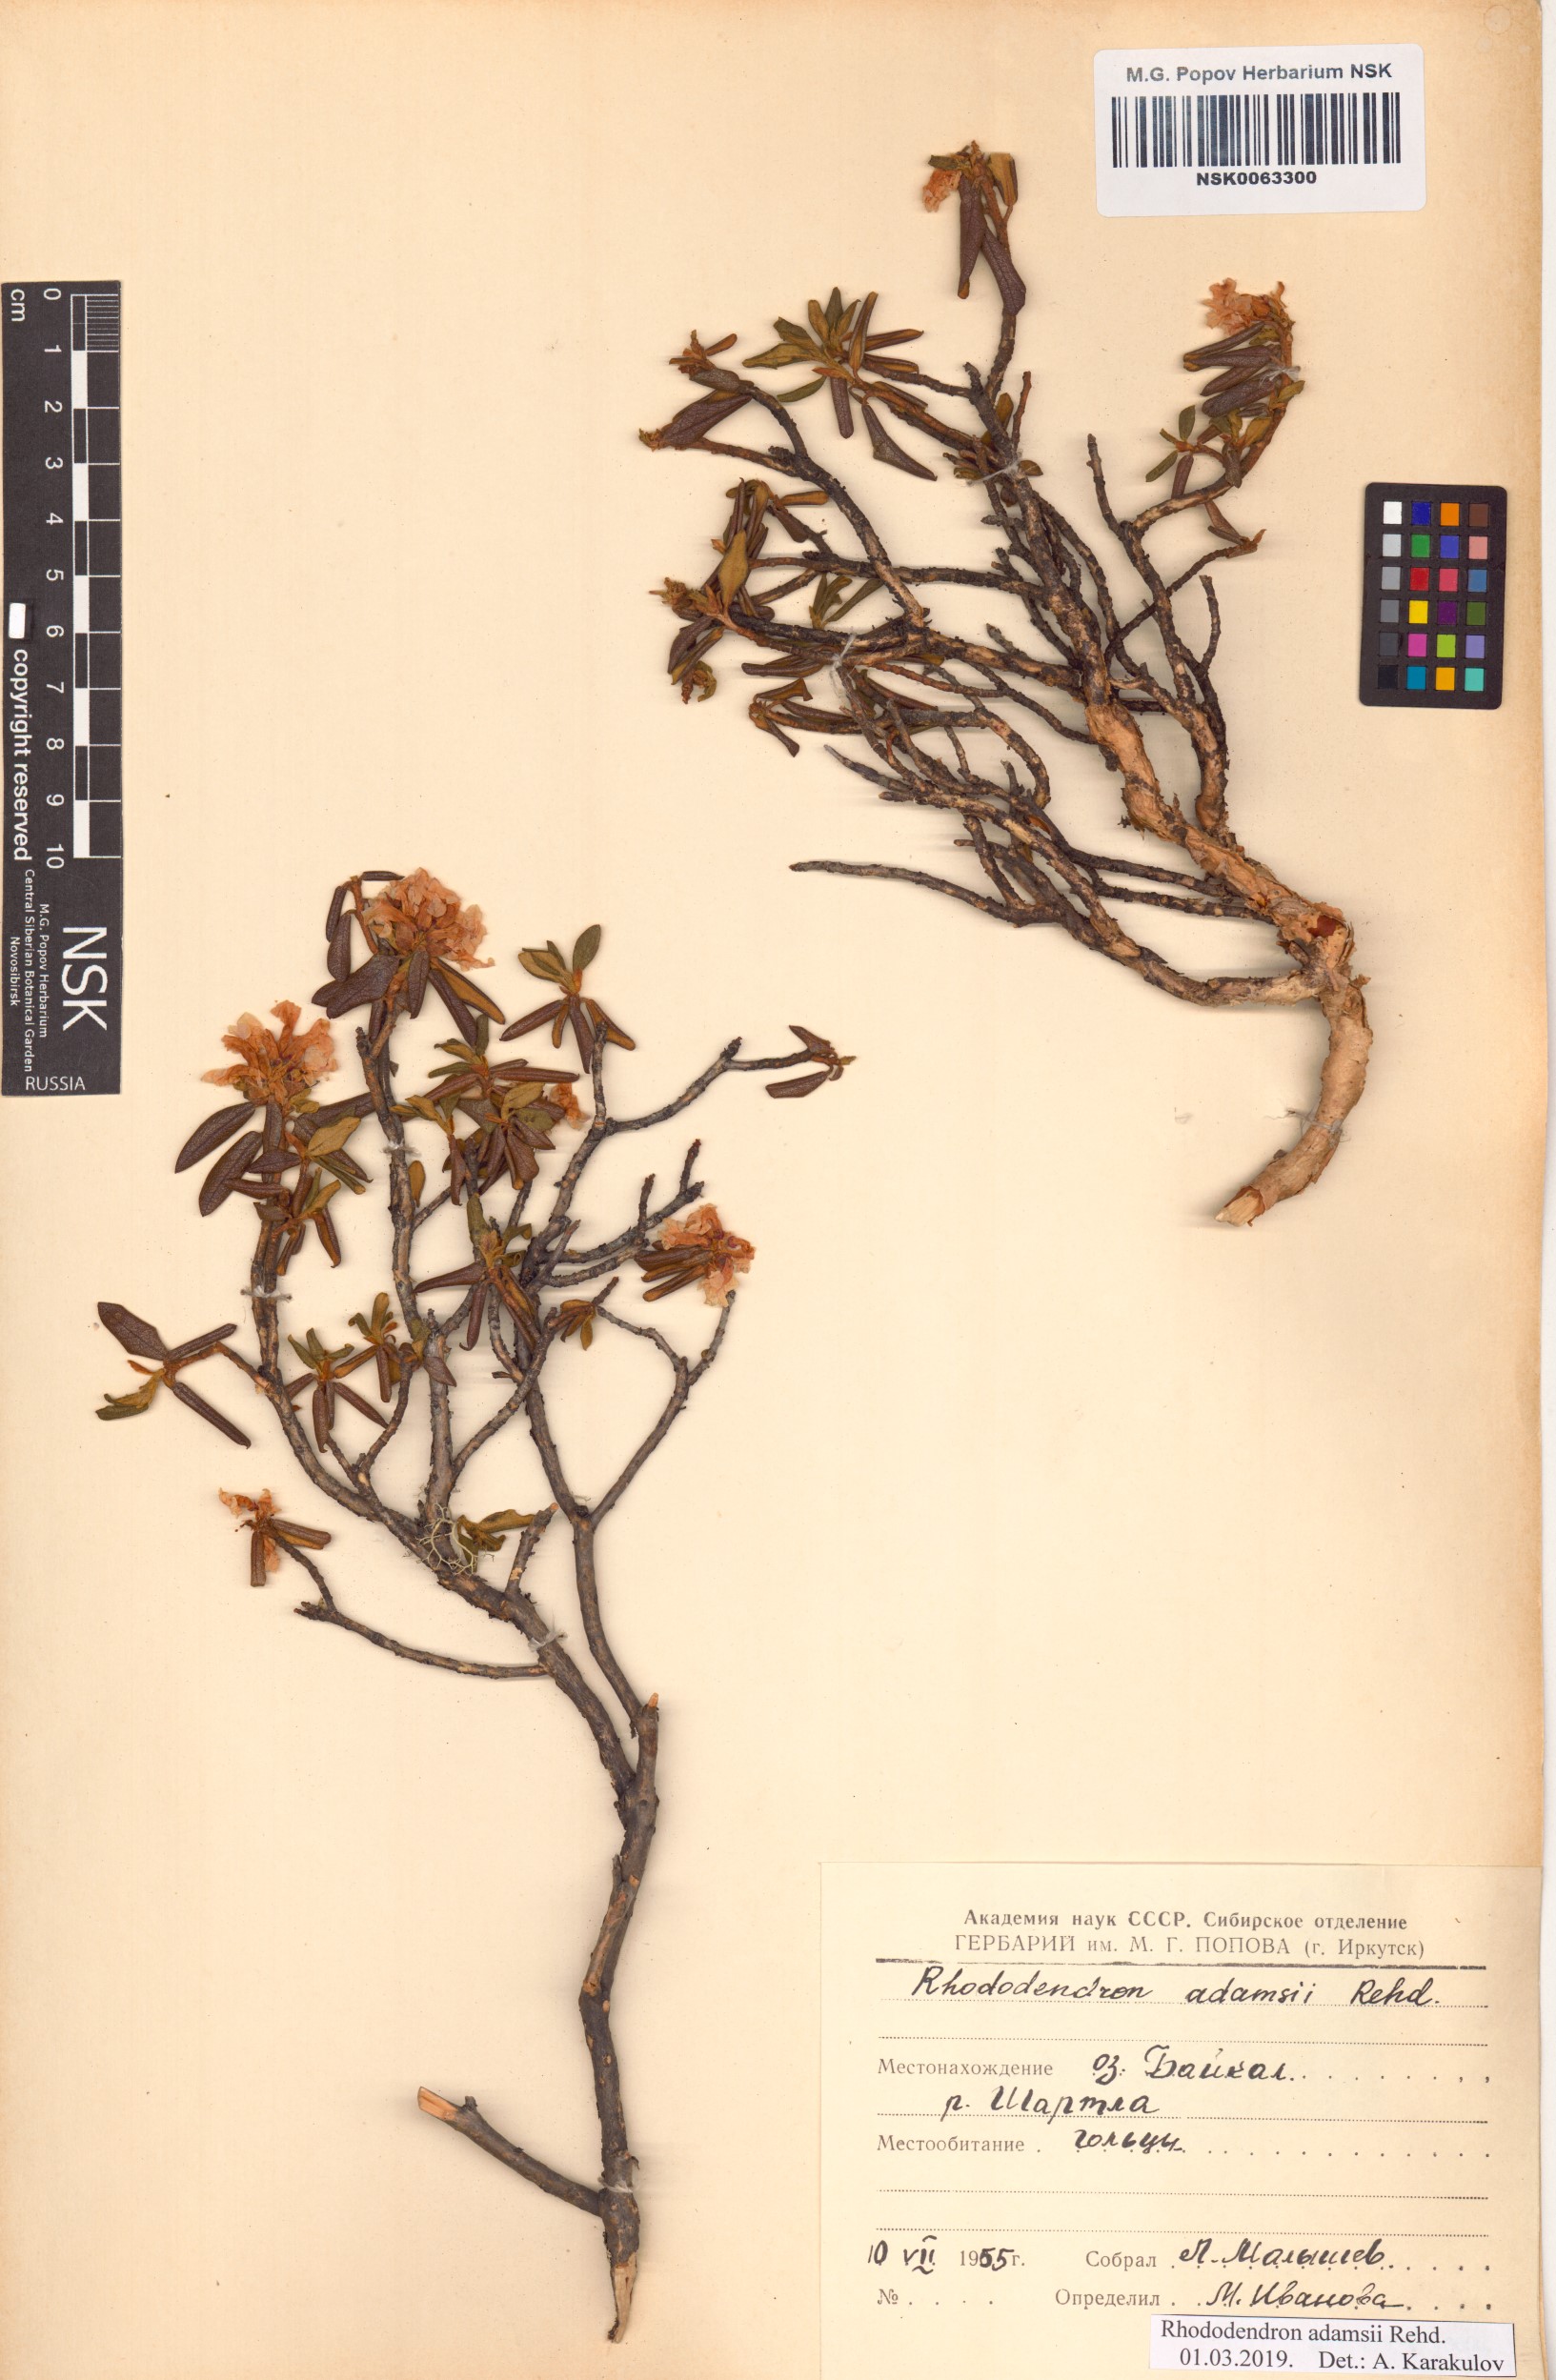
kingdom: Plantae
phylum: Tracheophyta
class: Magnoliopsida
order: Ericales
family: Ericaceae
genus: Rhododendron
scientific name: Rhododendron adamsii
